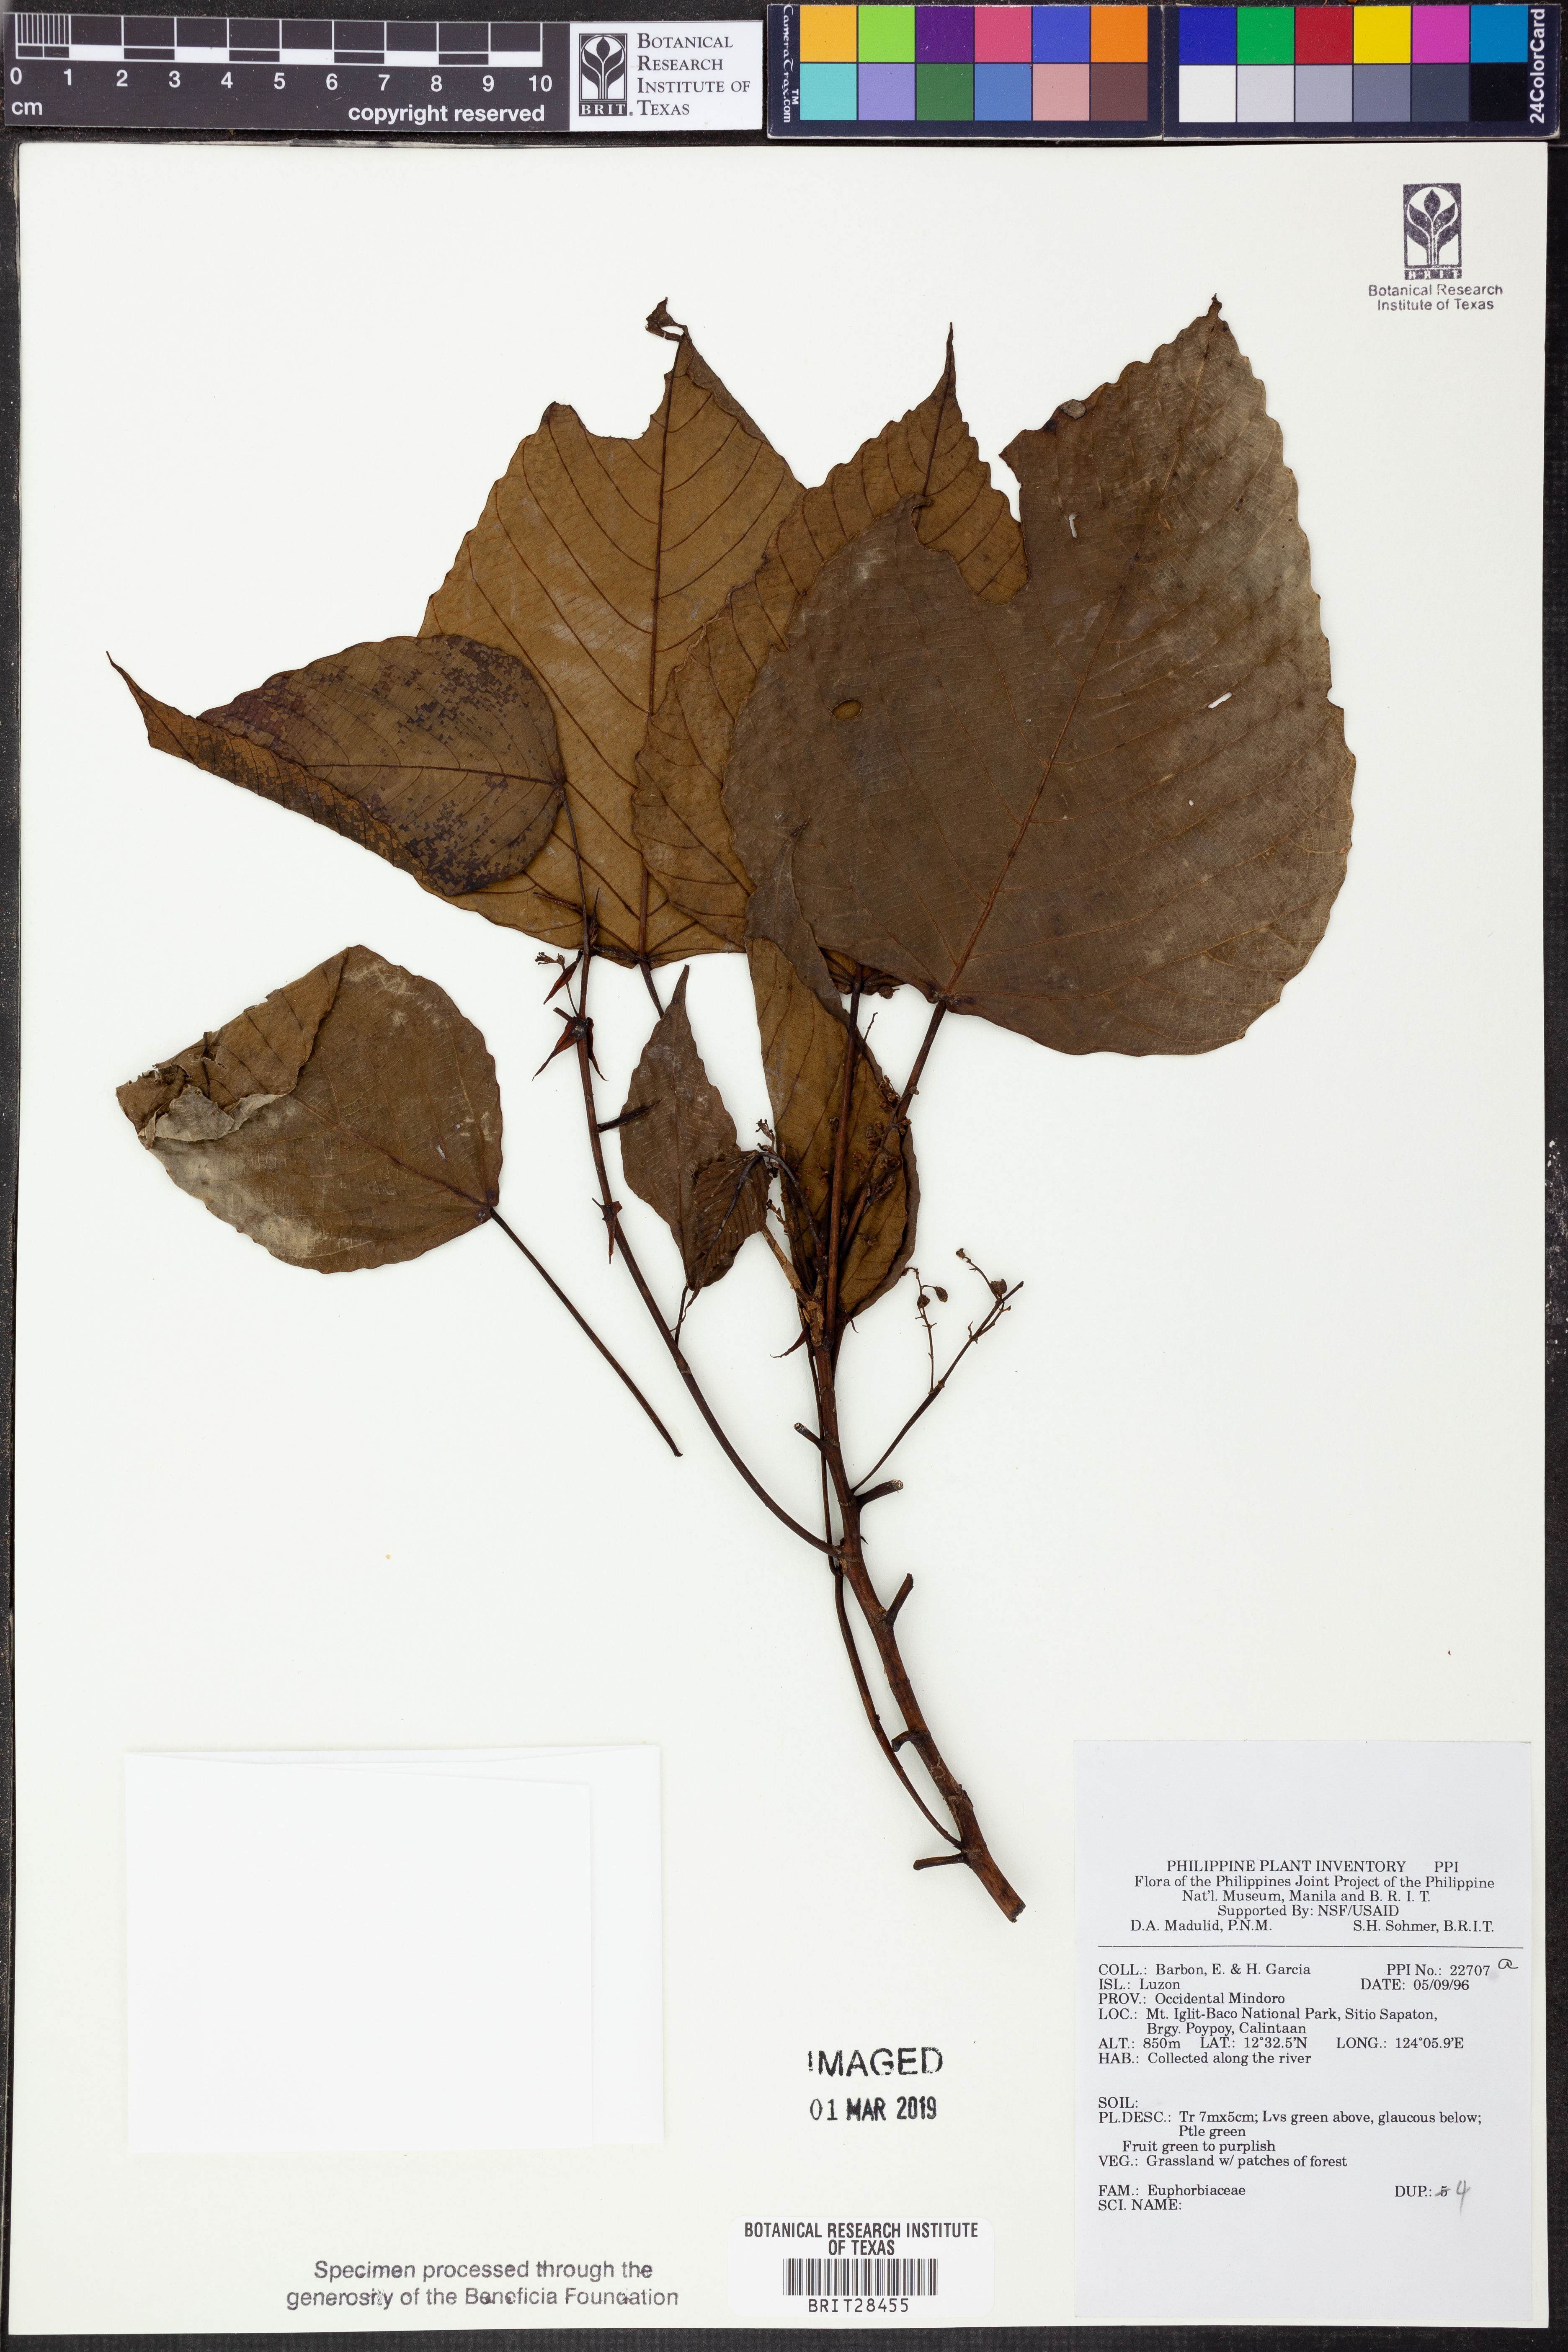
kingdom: Plantae
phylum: Tracheophyta
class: Magnoliopsida
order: Malpighiales
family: Euphorbiaceae
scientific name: Euphorbiaceae
